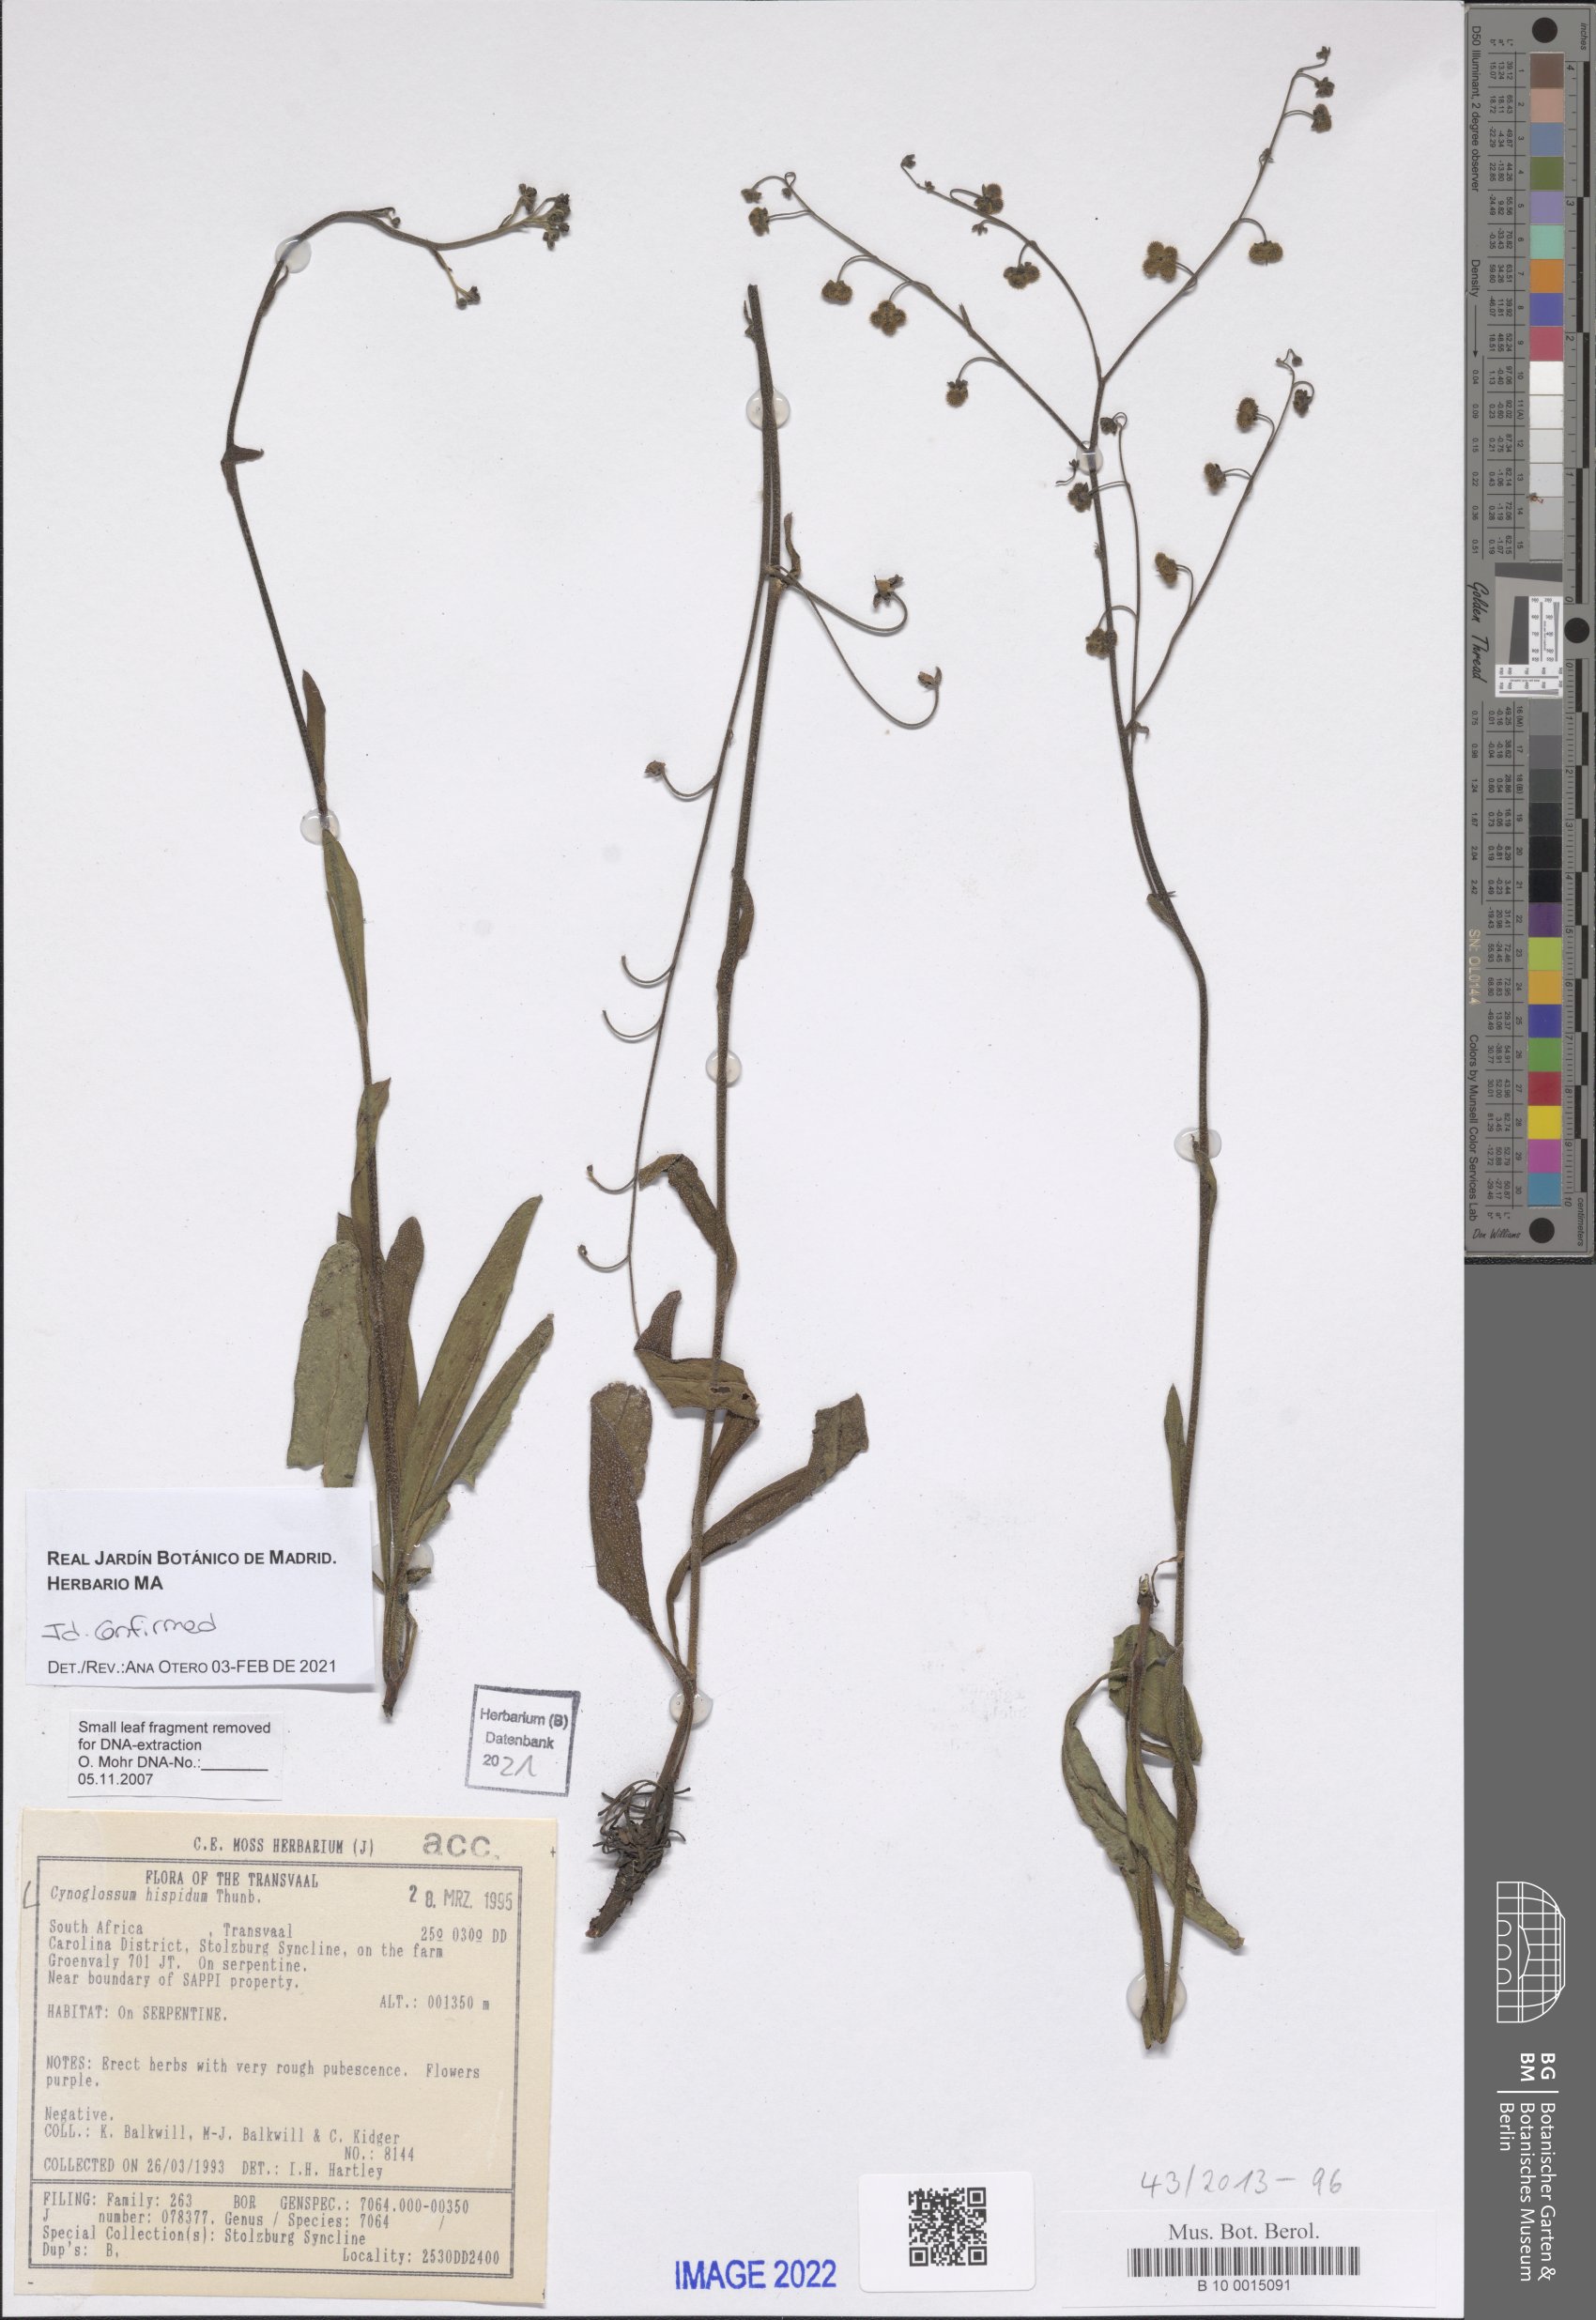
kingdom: Plantae
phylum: Tracheophyta
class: Magnoliopsida
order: Boraginales
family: Boraginaceae
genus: Cynoglossum
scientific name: Cynoglossum hispidum
